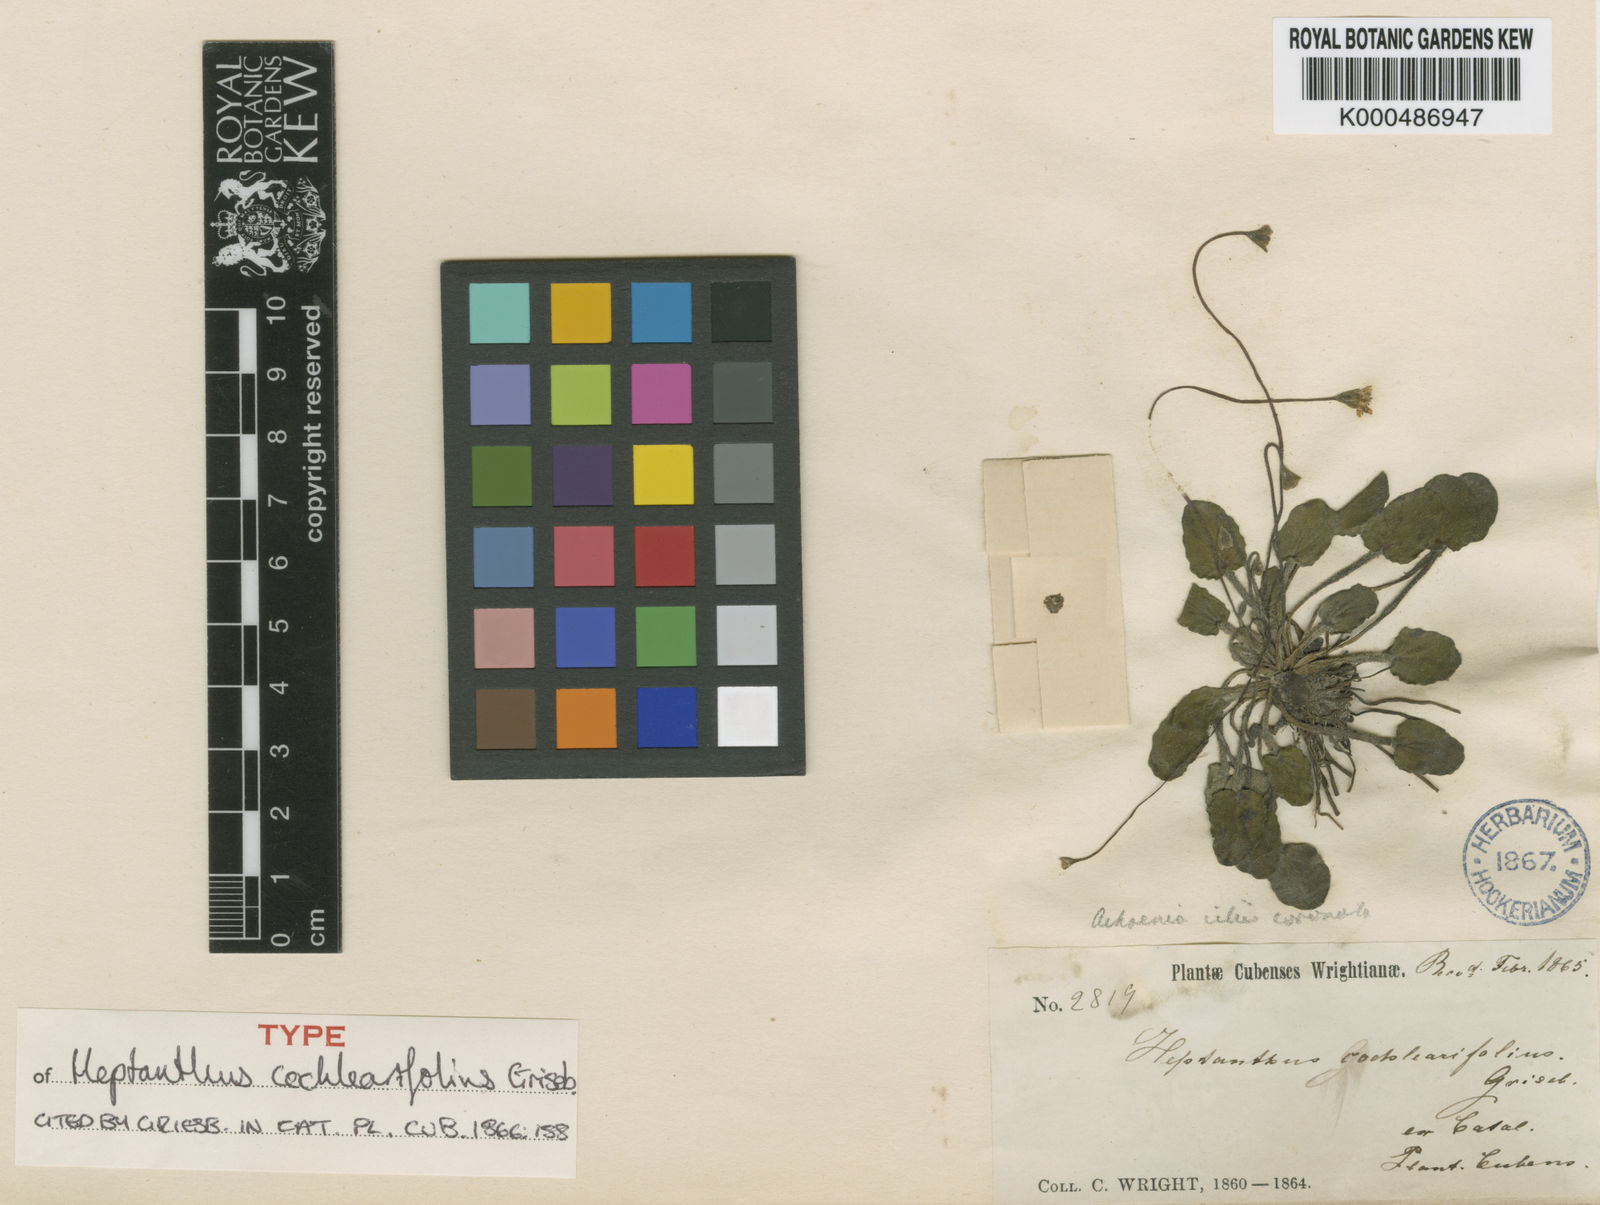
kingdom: Plantae
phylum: Tracheophyta
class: Magnoliopsida
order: Asterales
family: Asteraceae
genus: Heptanthus
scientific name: Heptanthus cochlearifolius
